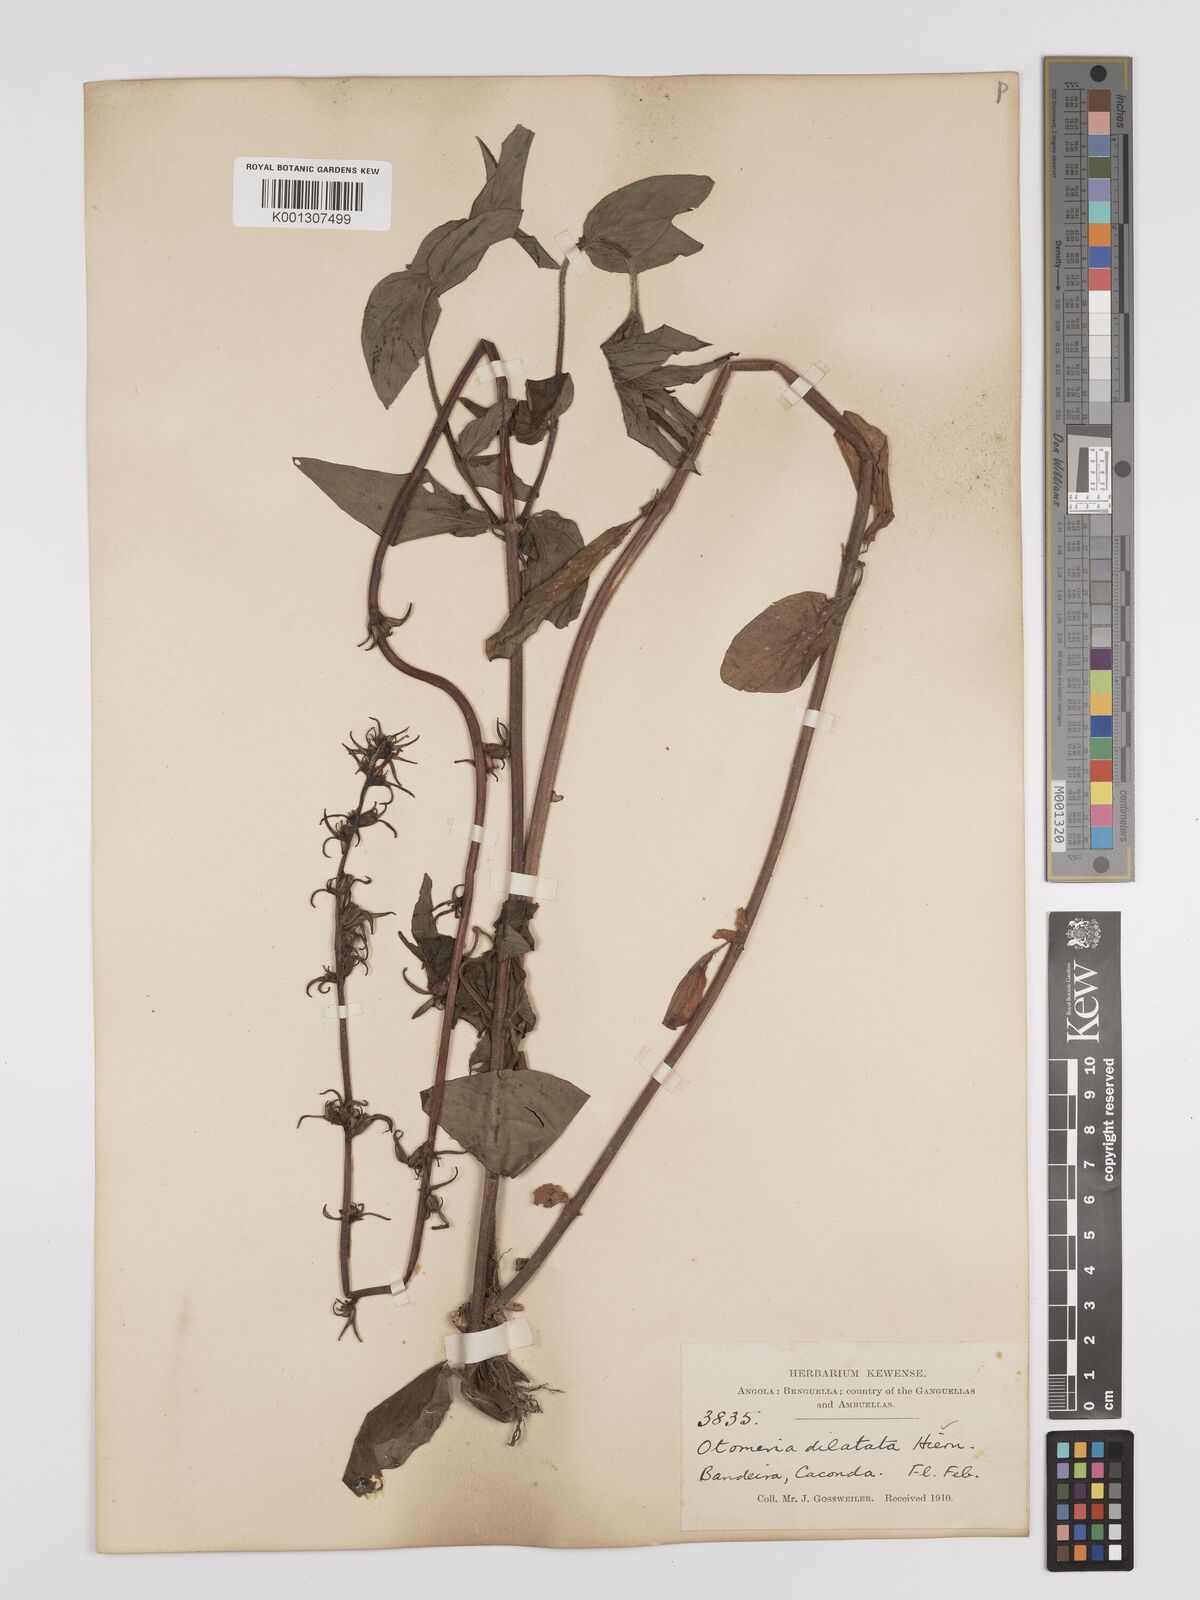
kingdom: Plantae
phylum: Tracheophyta
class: Magnoliopsida
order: Gentianales
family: Rubiaceae
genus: Otomeria
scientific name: Otomeria elatior
